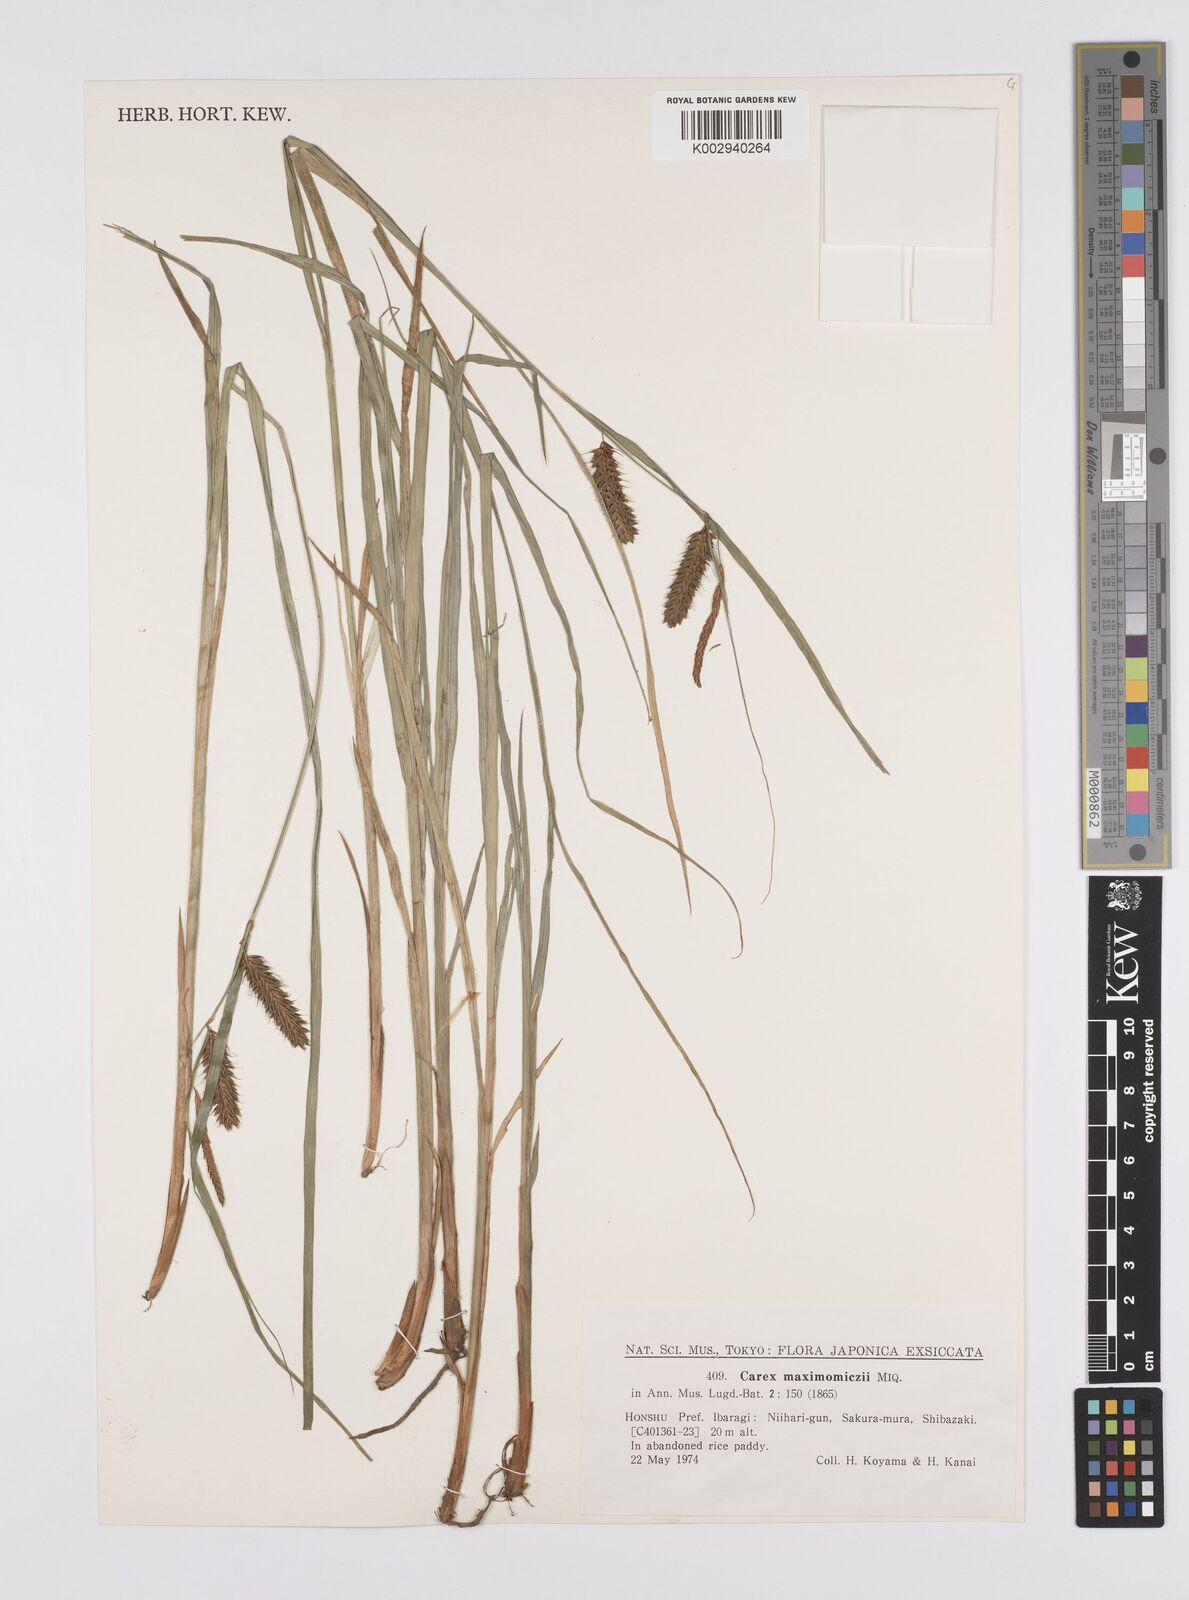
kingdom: Plantae
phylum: Tracheophyta
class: Liliopsida
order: Poales
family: Cyperaceae
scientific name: Cyperaceae
